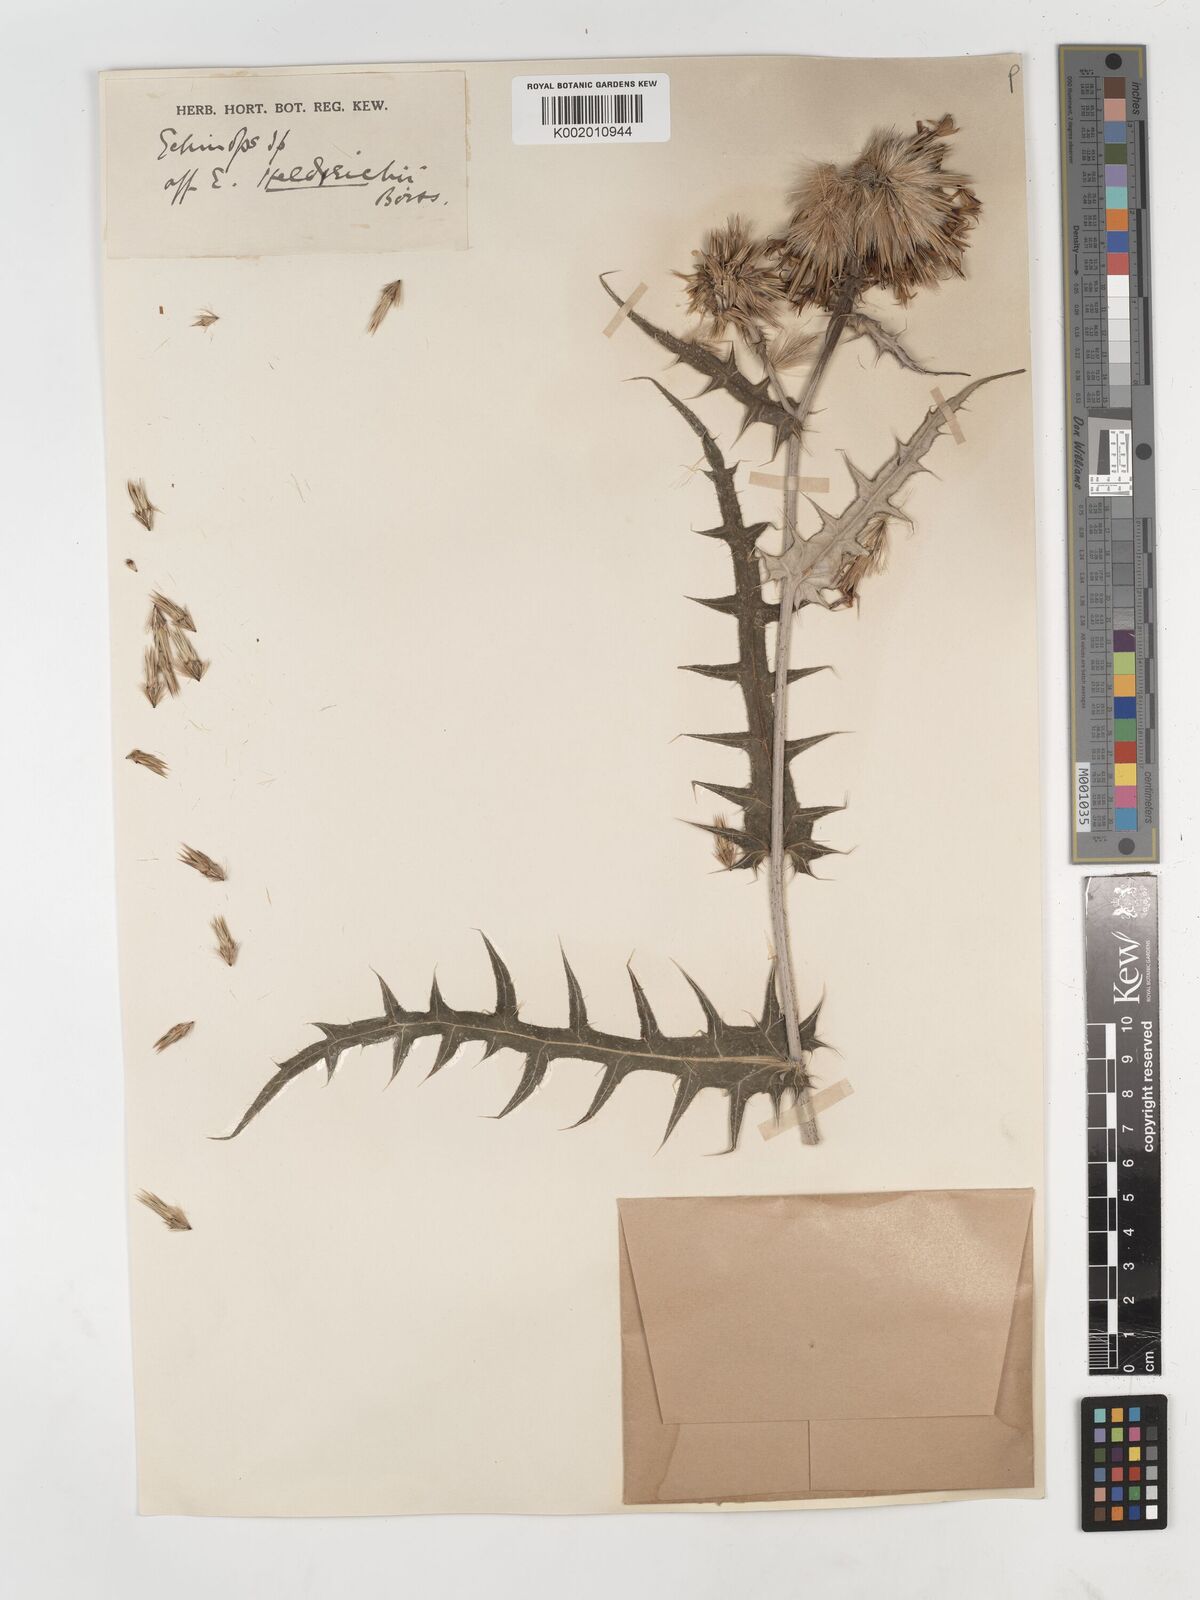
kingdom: Plantae
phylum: Tracheophyta
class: Magnoliopsida
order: Asterales
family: Asteraceae
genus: Echinops
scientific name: Echinops
